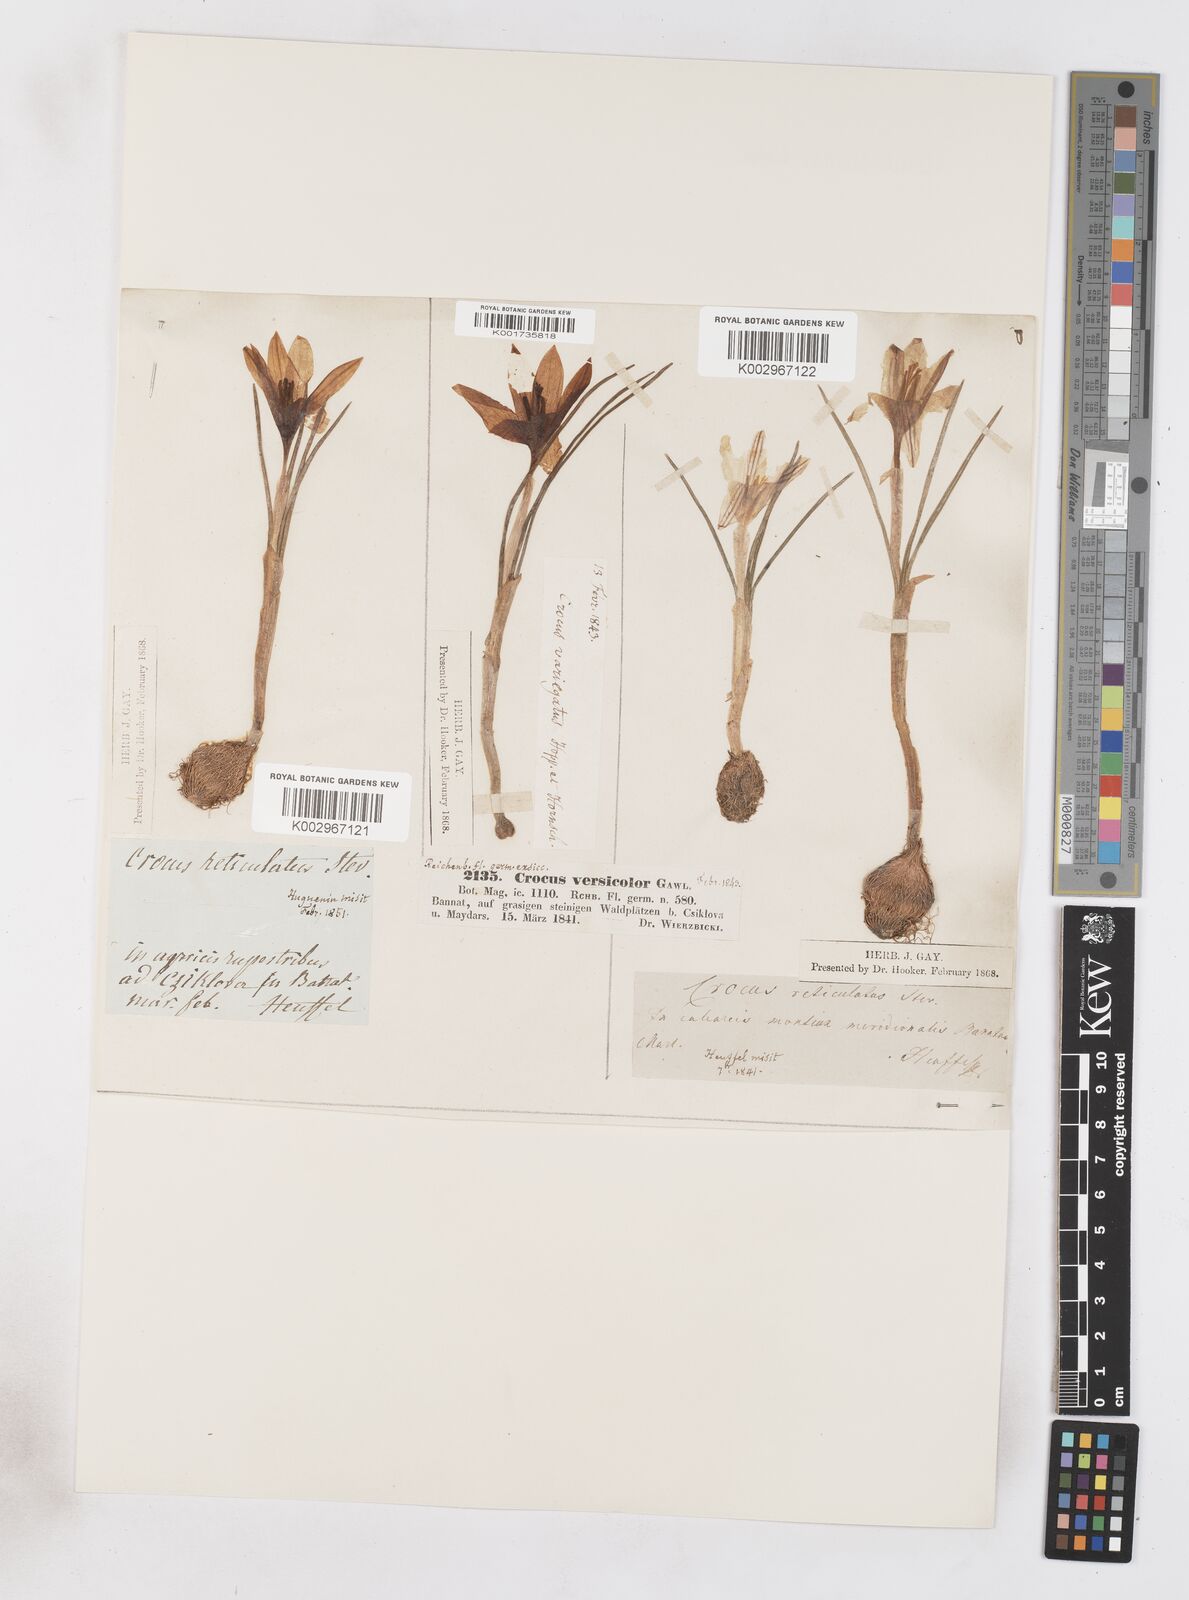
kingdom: Plantae
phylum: Tracheophyta
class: Liliopsida
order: Asparagales
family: Iridaceae
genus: Crocus
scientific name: Crocus reticulatus
